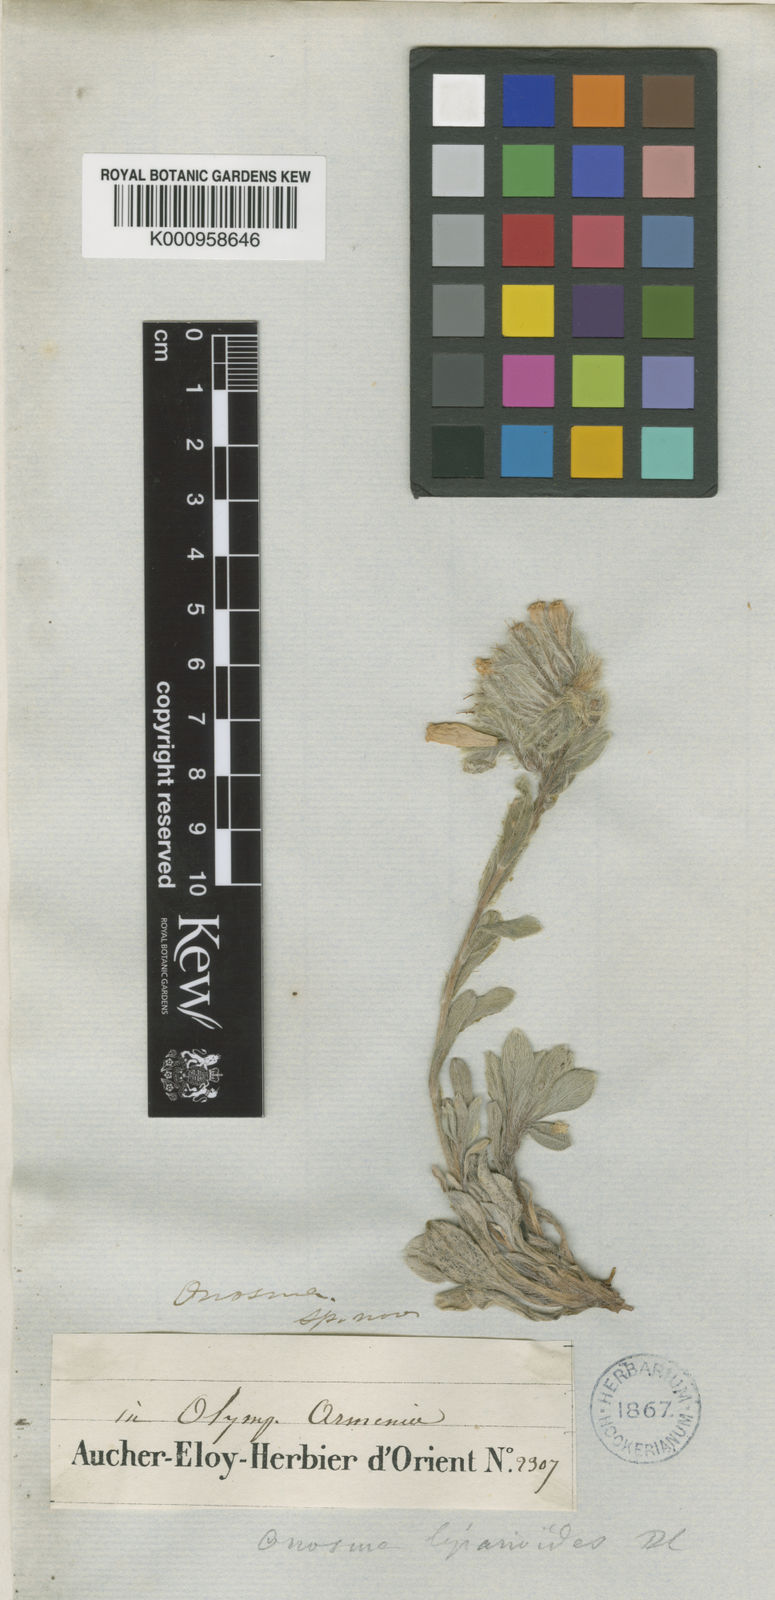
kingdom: Plantae
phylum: Tracheophyta
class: Magnoliopsida
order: Boraginales
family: Boraginaceae
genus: Onosma
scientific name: Onosma liparioides
